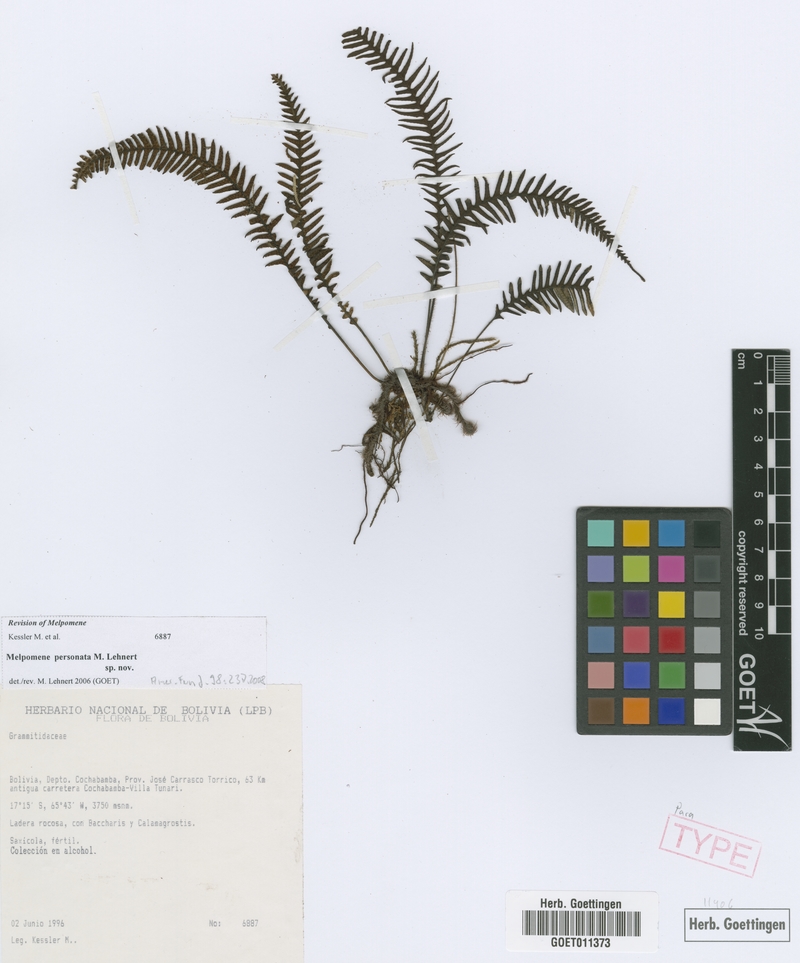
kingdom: Plantae
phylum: Tracheophyta
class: Polypodiopsida
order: Polypodiales
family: Polypodiaceae
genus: Melpomene
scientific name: Melpomene personata
